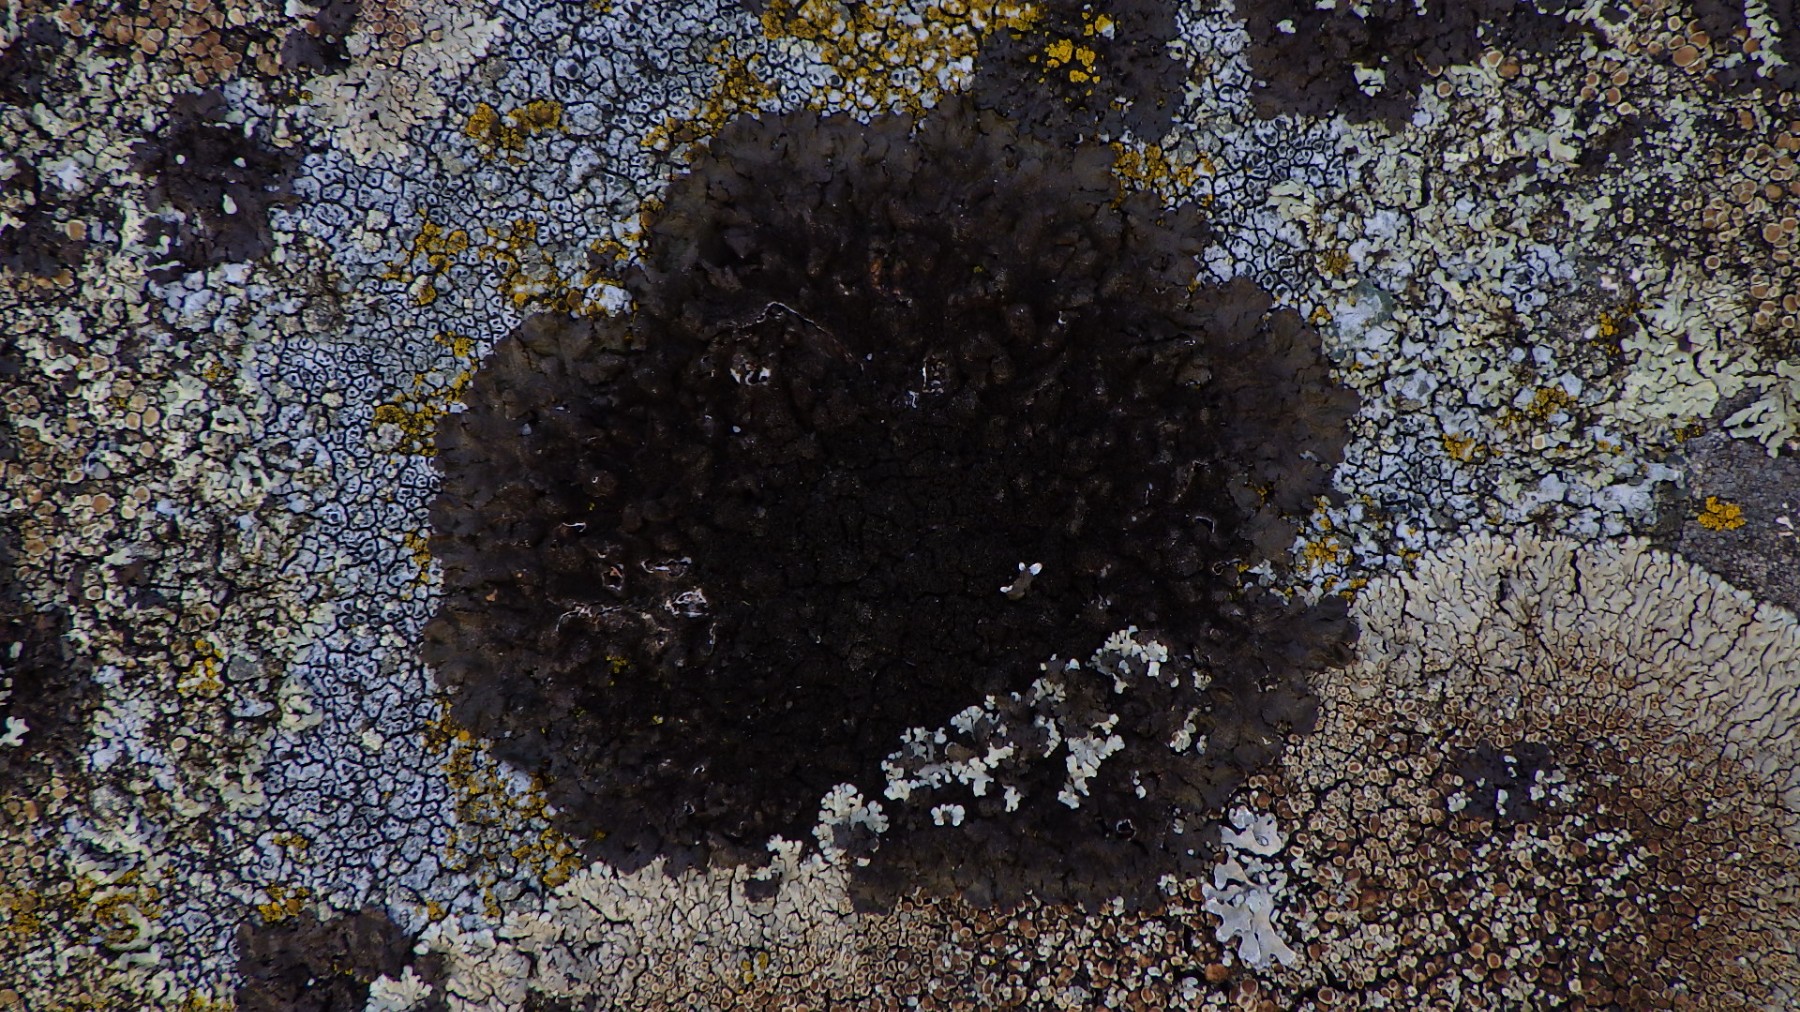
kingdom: Fungi
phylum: Ascomycota
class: Lecanoromycetes
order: Lecanorales
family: Parmeliaceae
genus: Melanelixia
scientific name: Melanelixia fuliginosa
